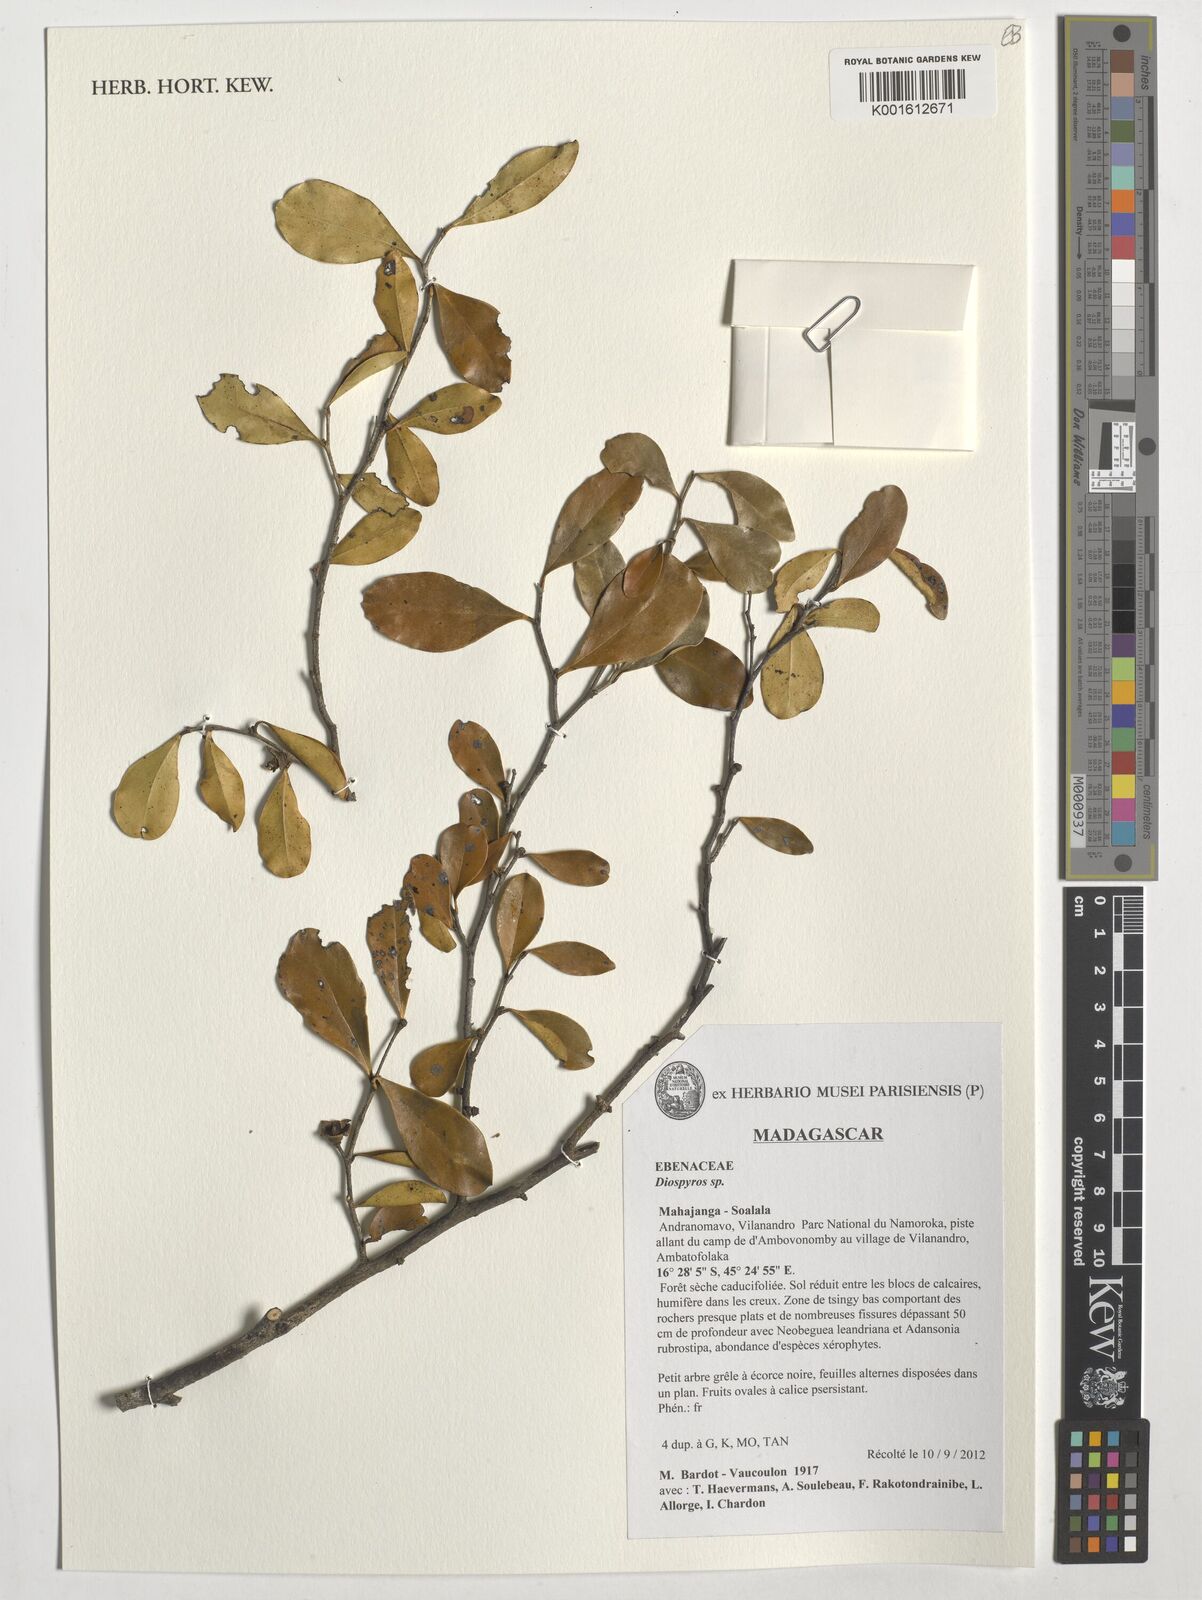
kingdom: Plantae
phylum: Tracheophyta
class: Magnoliopsida
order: Ericales
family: Ebenaceae
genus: Diospyros
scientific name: Diospyros
